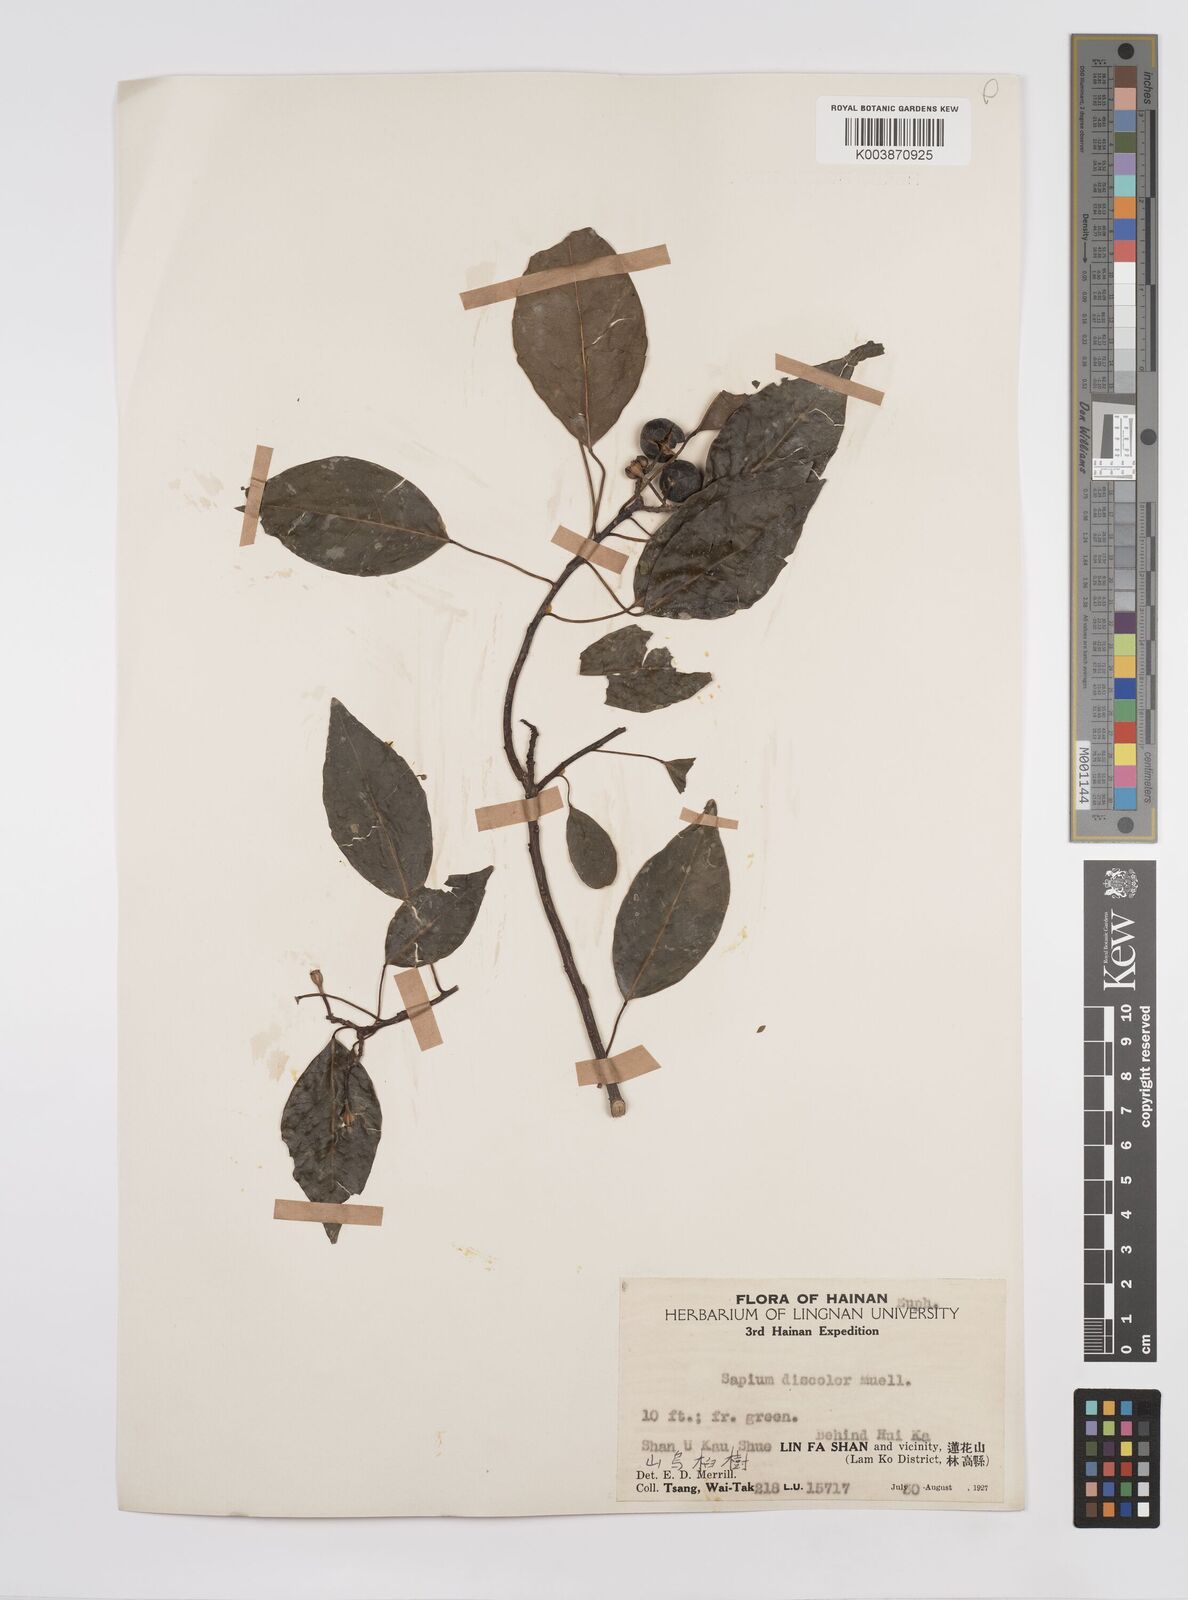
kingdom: Plantae
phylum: Tracheophyta
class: Magnoliopsida
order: Malpighiales
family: Euphorbiaceae
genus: Triadica
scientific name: Triadica cochinchinensis
